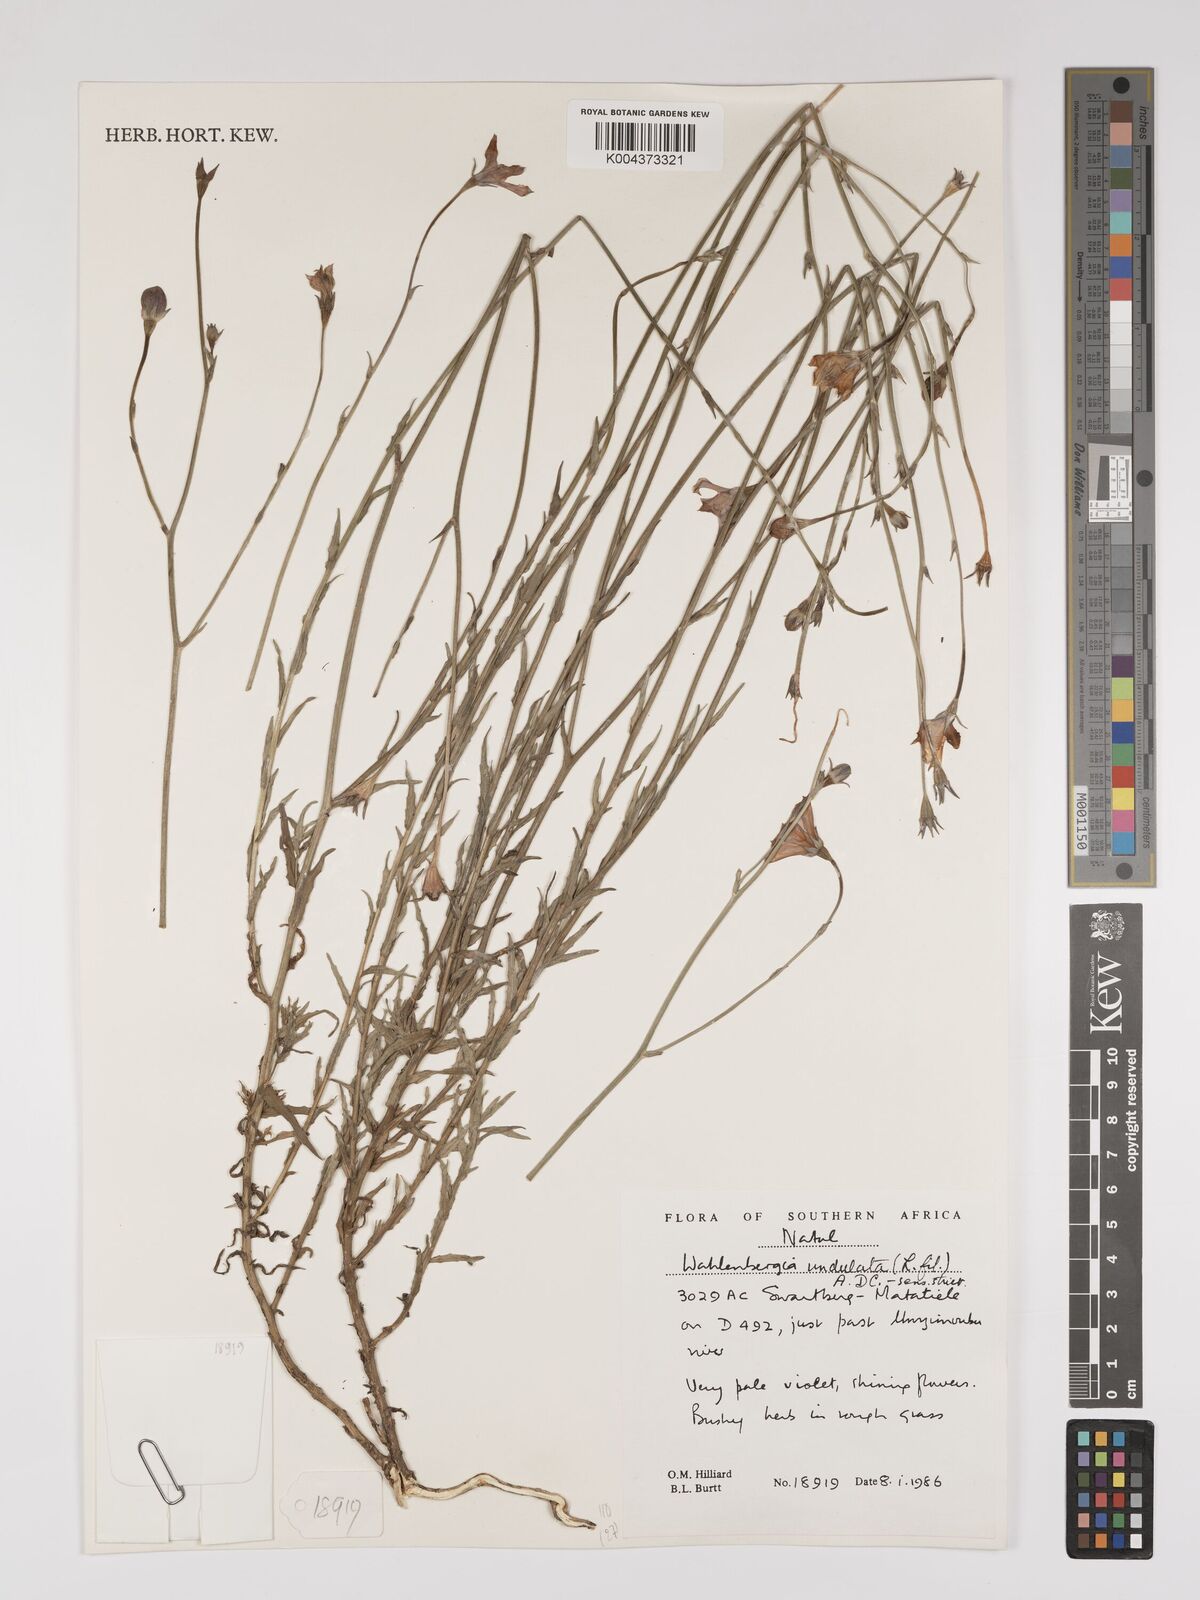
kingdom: Plantae
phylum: Tracheophyta
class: Magnoliopsida
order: Asterales
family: Campanulaceae
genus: Wahlenbergia
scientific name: Wahlenbergia undulata
